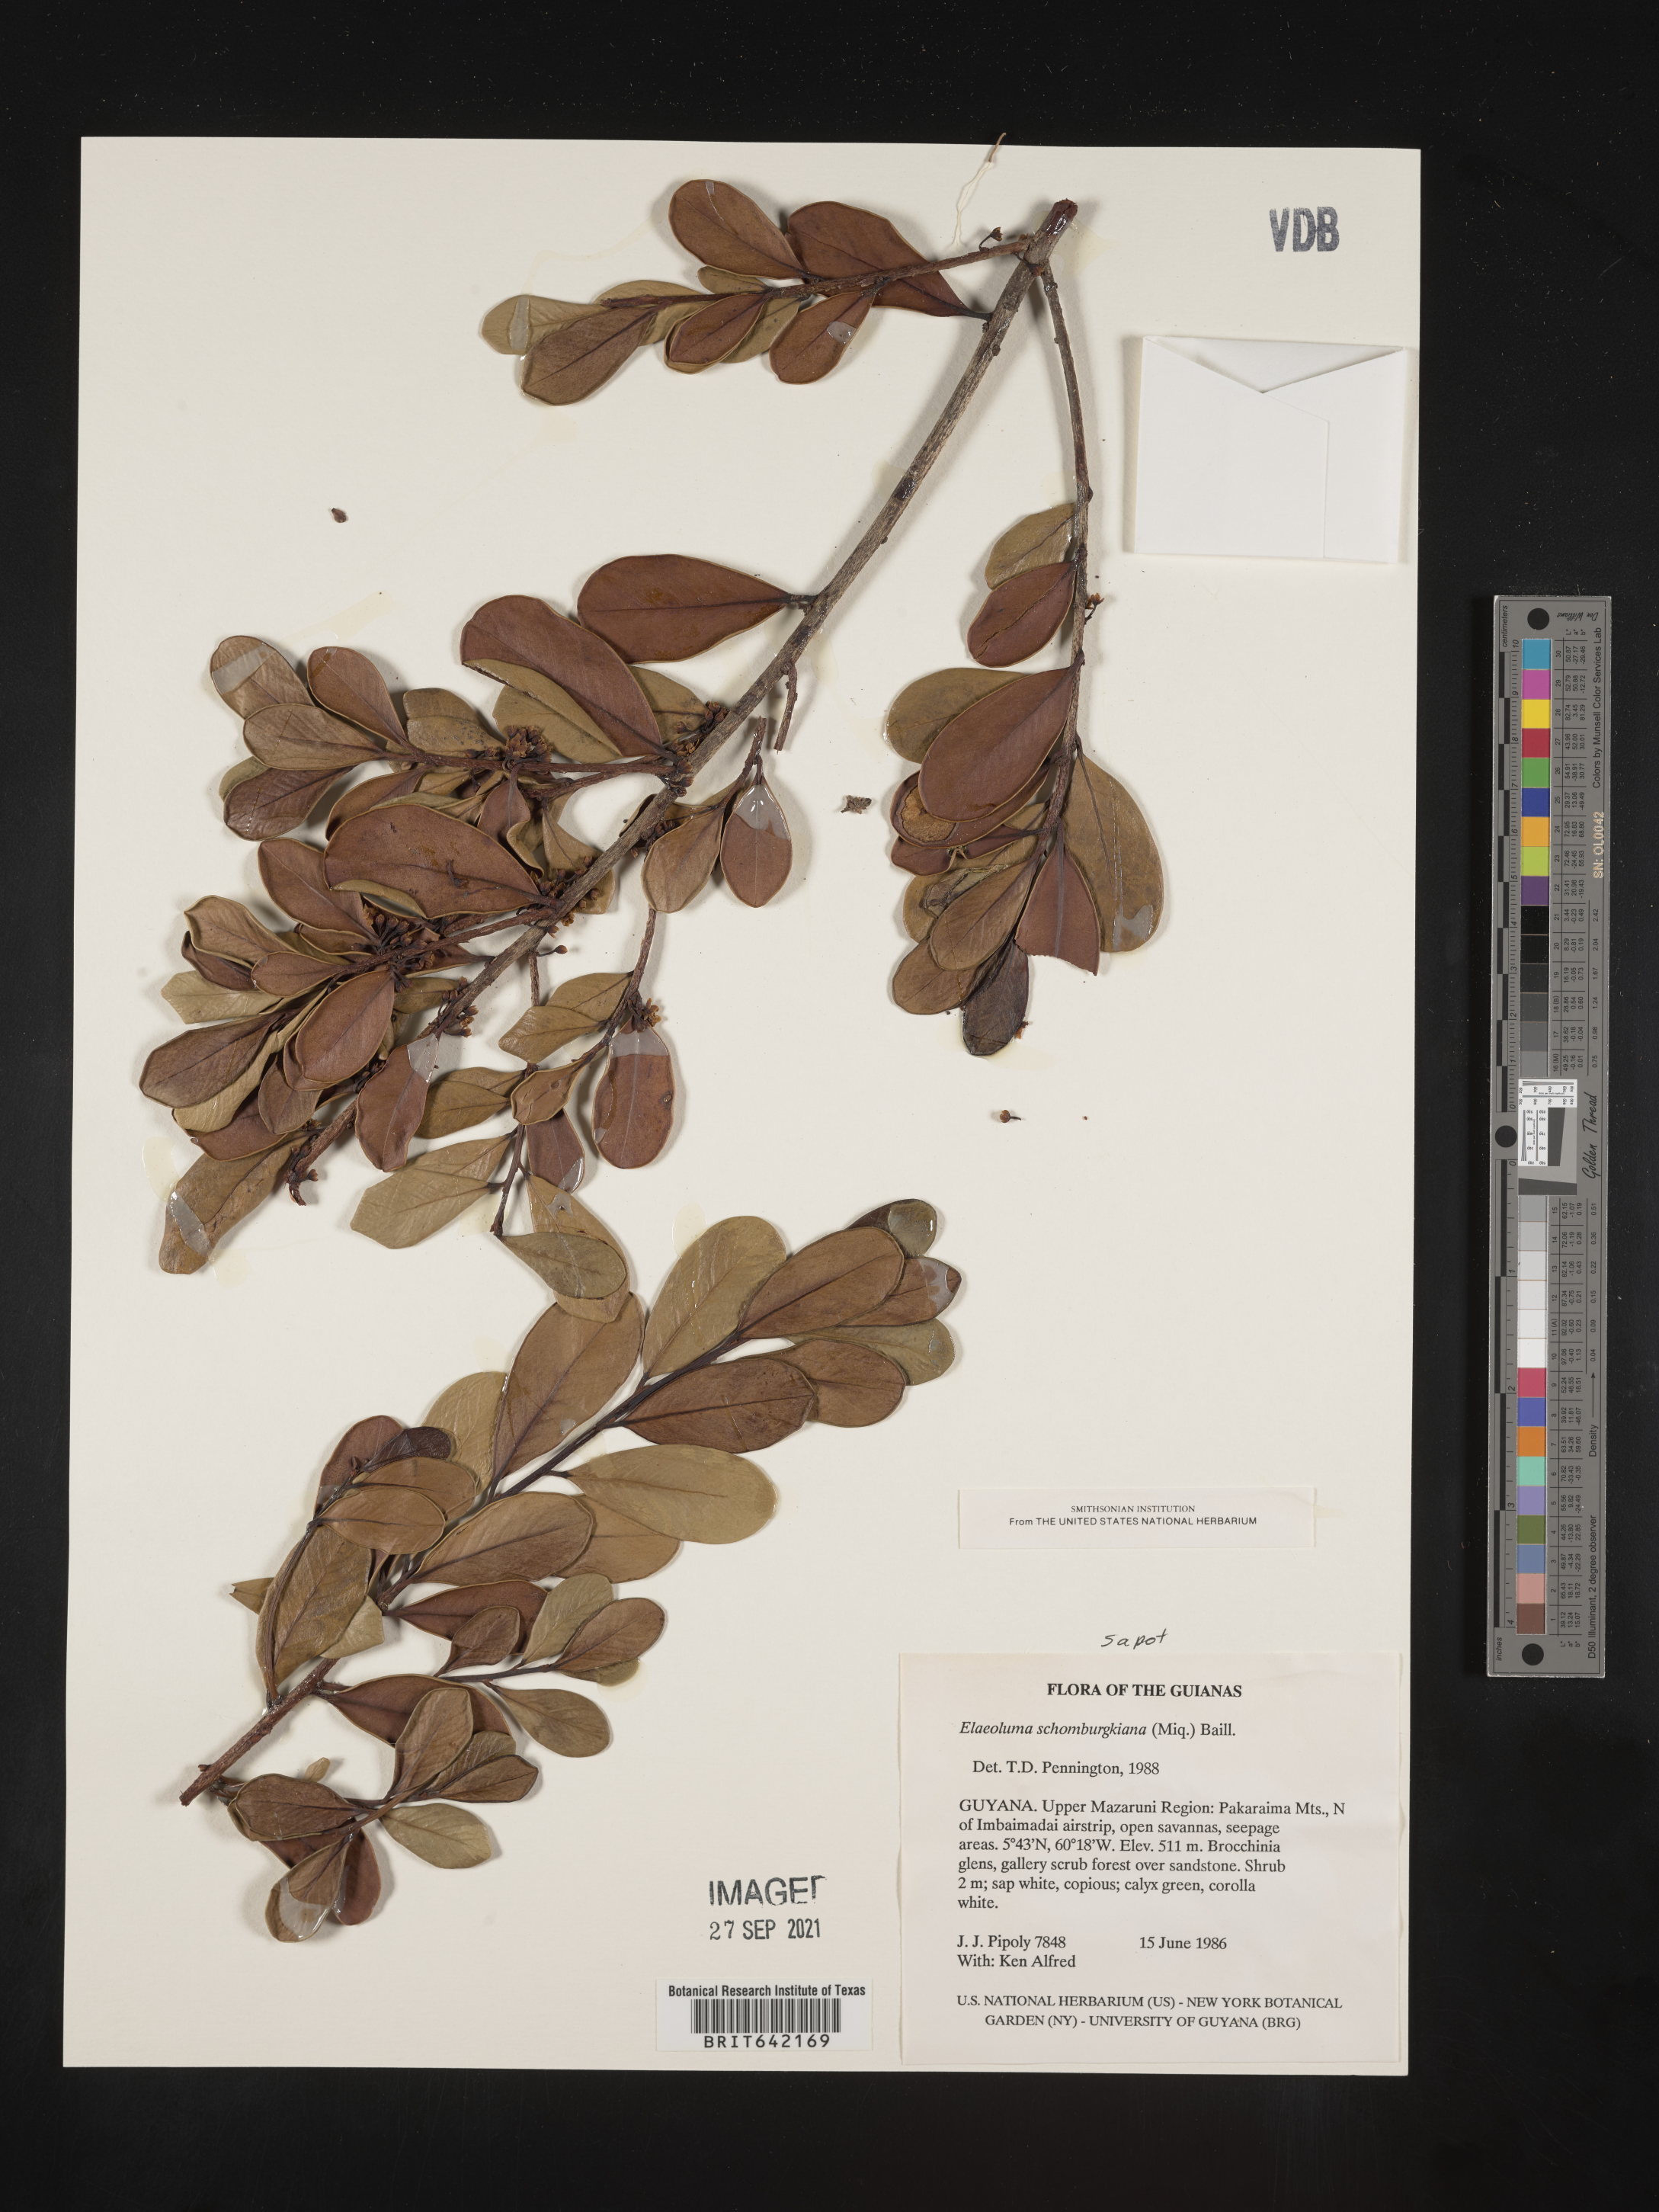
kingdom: Plantae
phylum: Tracheophyta
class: Magnoliopsida
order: Ericales
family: Sapotaceae
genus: Elaeoluma
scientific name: Elaeoluma
